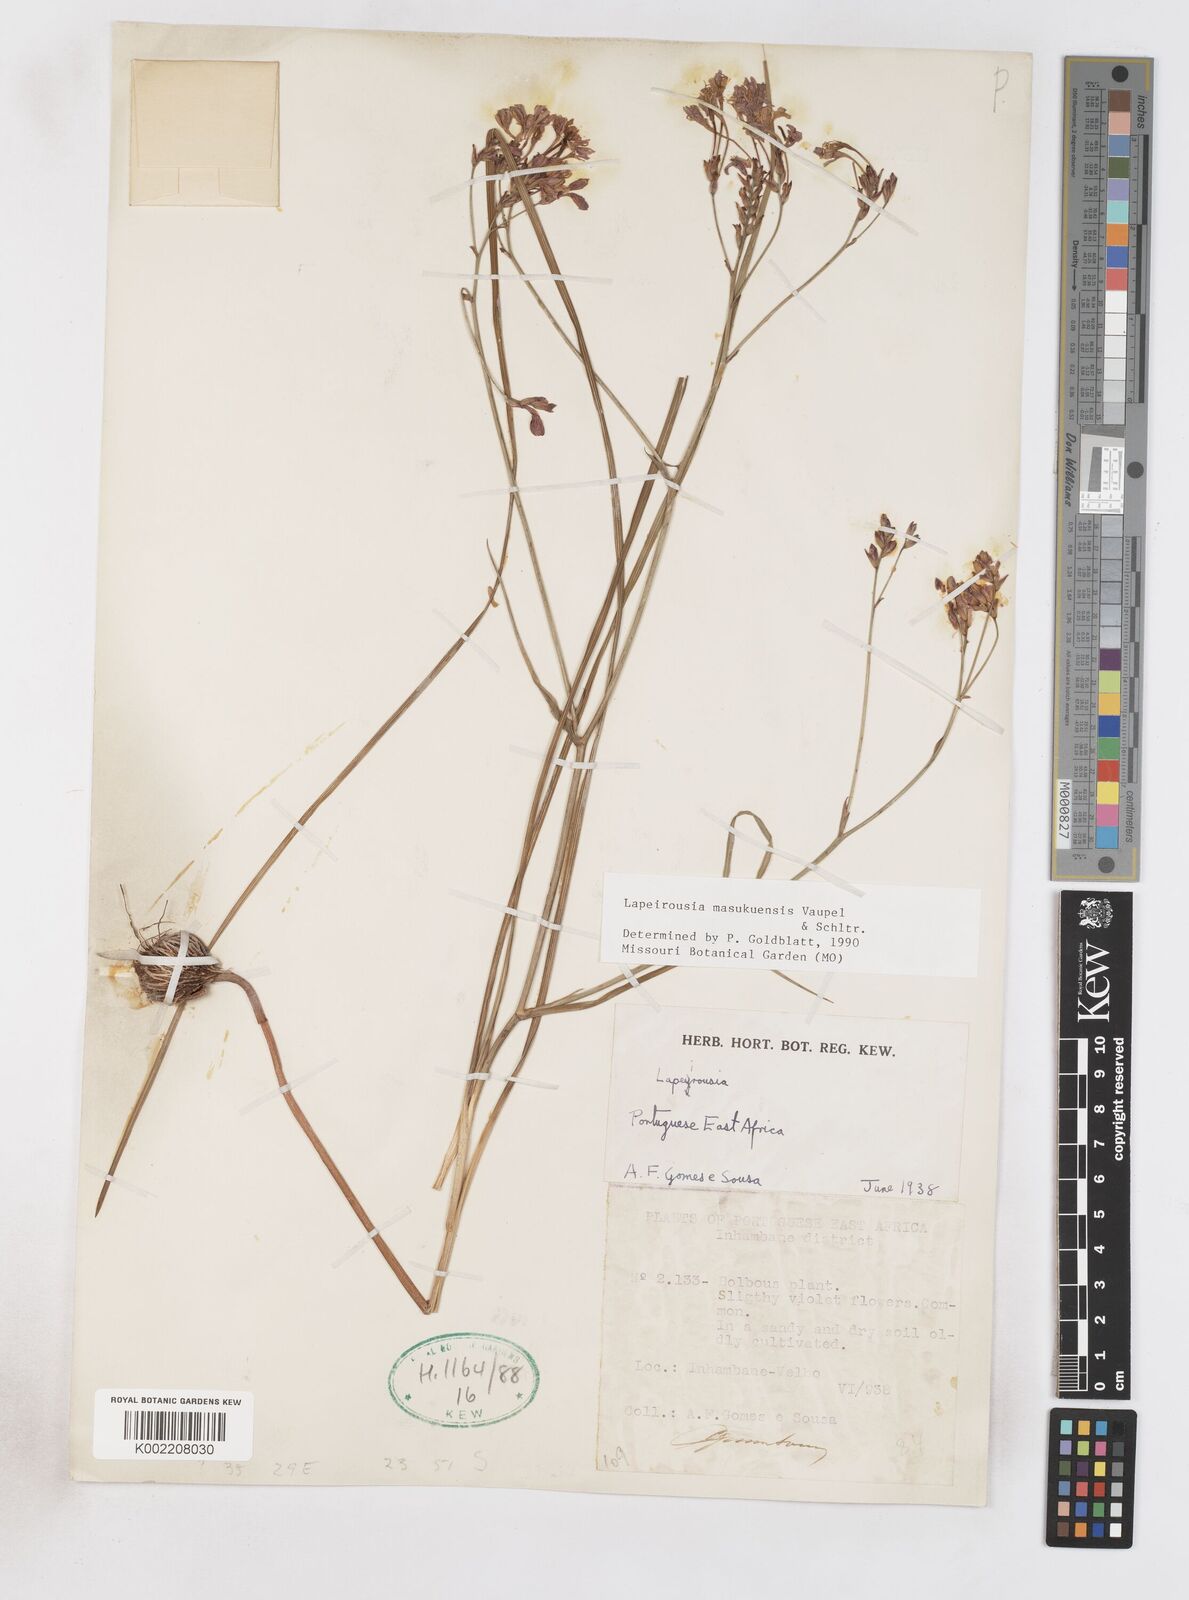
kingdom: Plantae
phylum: Tracheophyta
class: Liliopsida
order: Asparagales
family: Iridaceae
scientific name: Iridaceae
